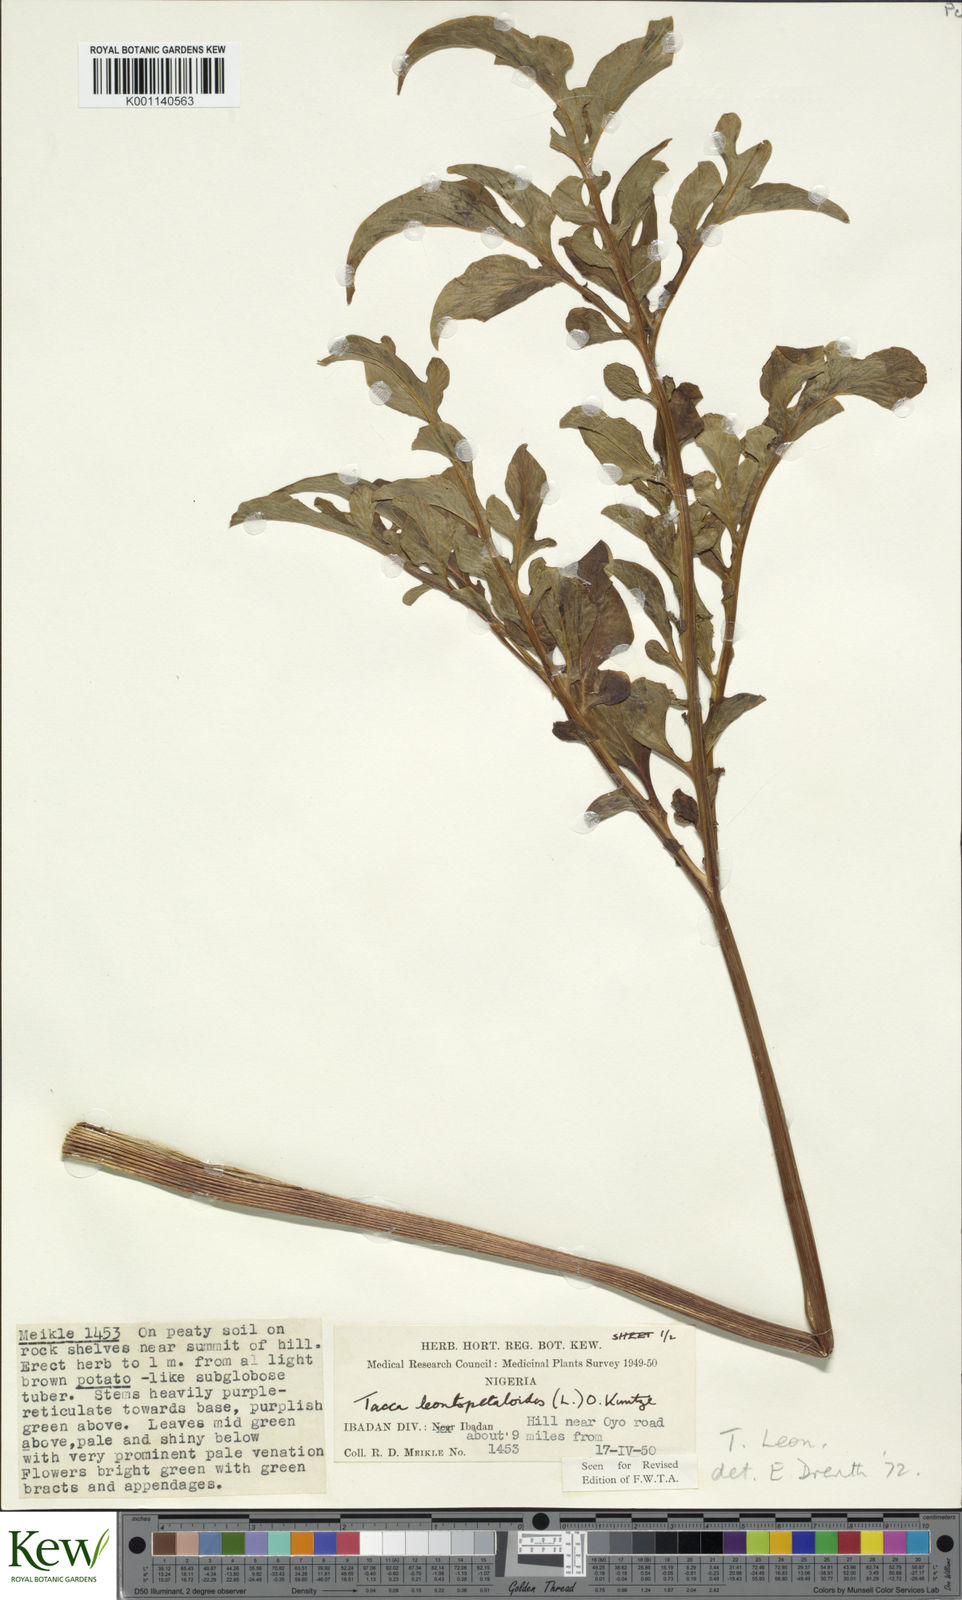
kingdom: Plantae
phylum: Tracheophyta
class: Liliopsida
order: Dioscoreales
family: Dioscoreaceae
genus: Tacca
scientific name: Tacca leontopetaloides
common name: Arrowroot
